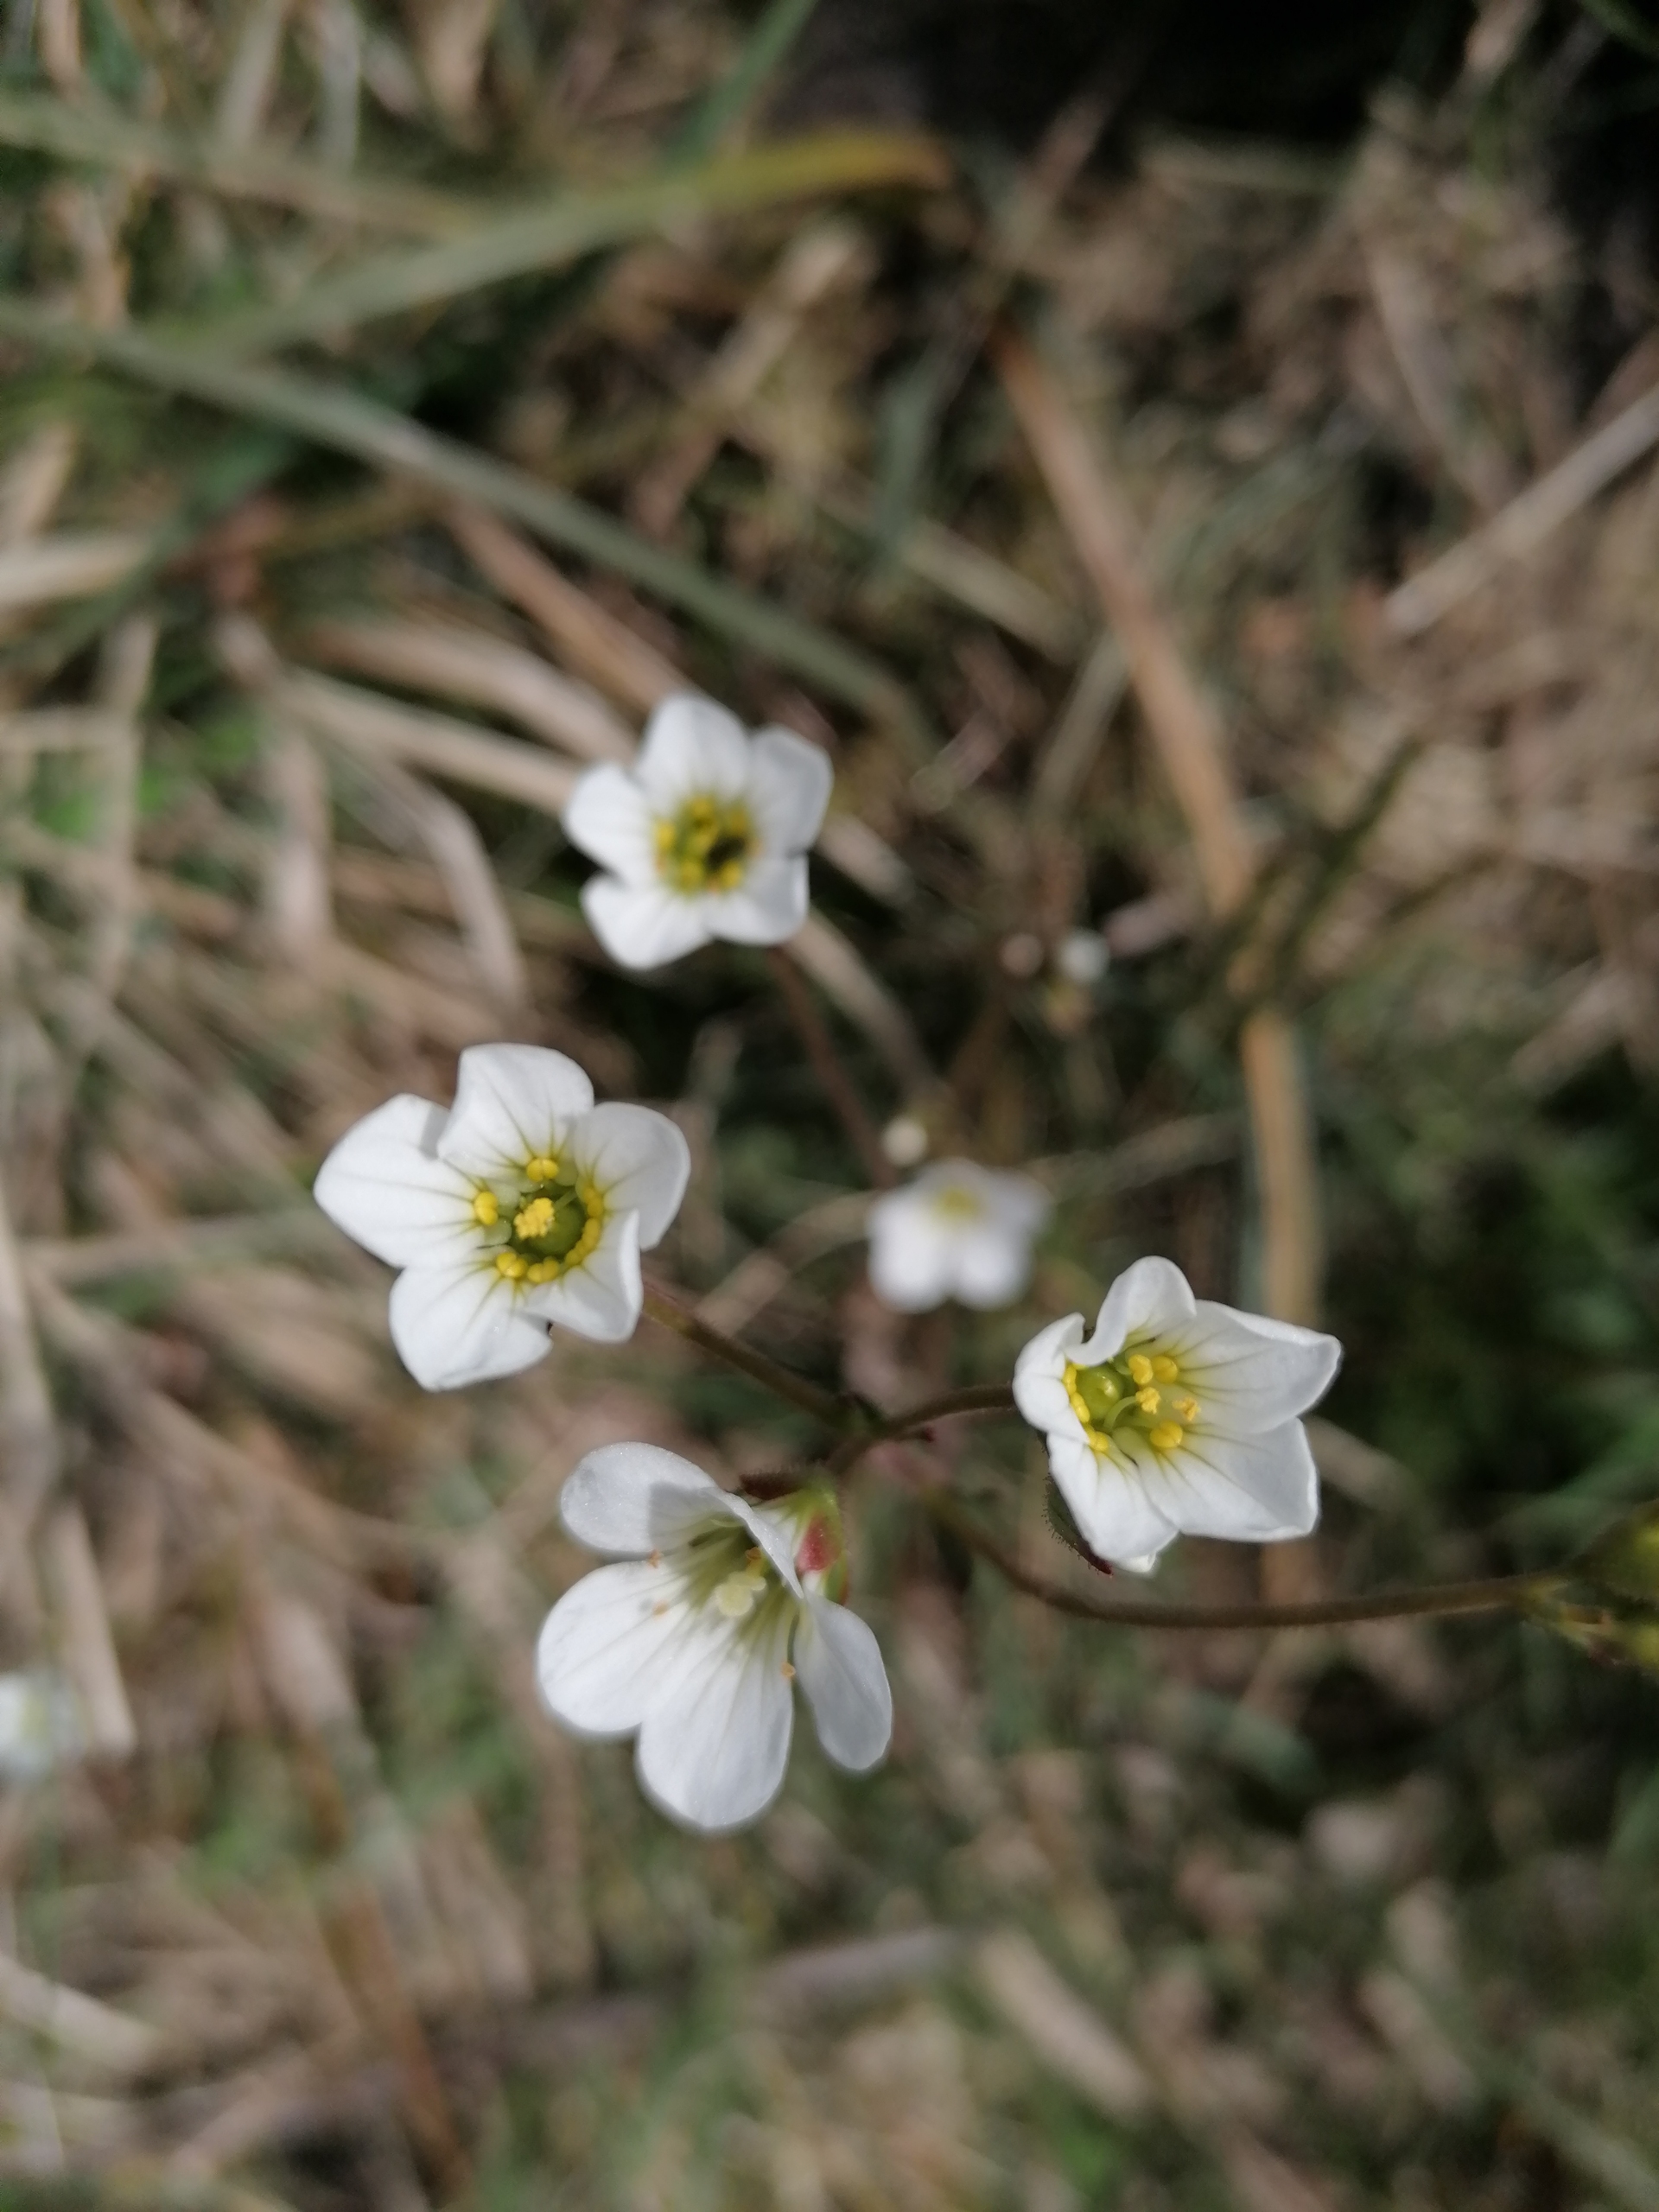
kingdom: Plantae
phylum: Tracheophyta
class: Magnoliopsida
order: Saxifragales
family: Saxifragaceae
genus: Saxifraga
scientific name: Saxifraga granulata
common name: Kornet stenbræk
